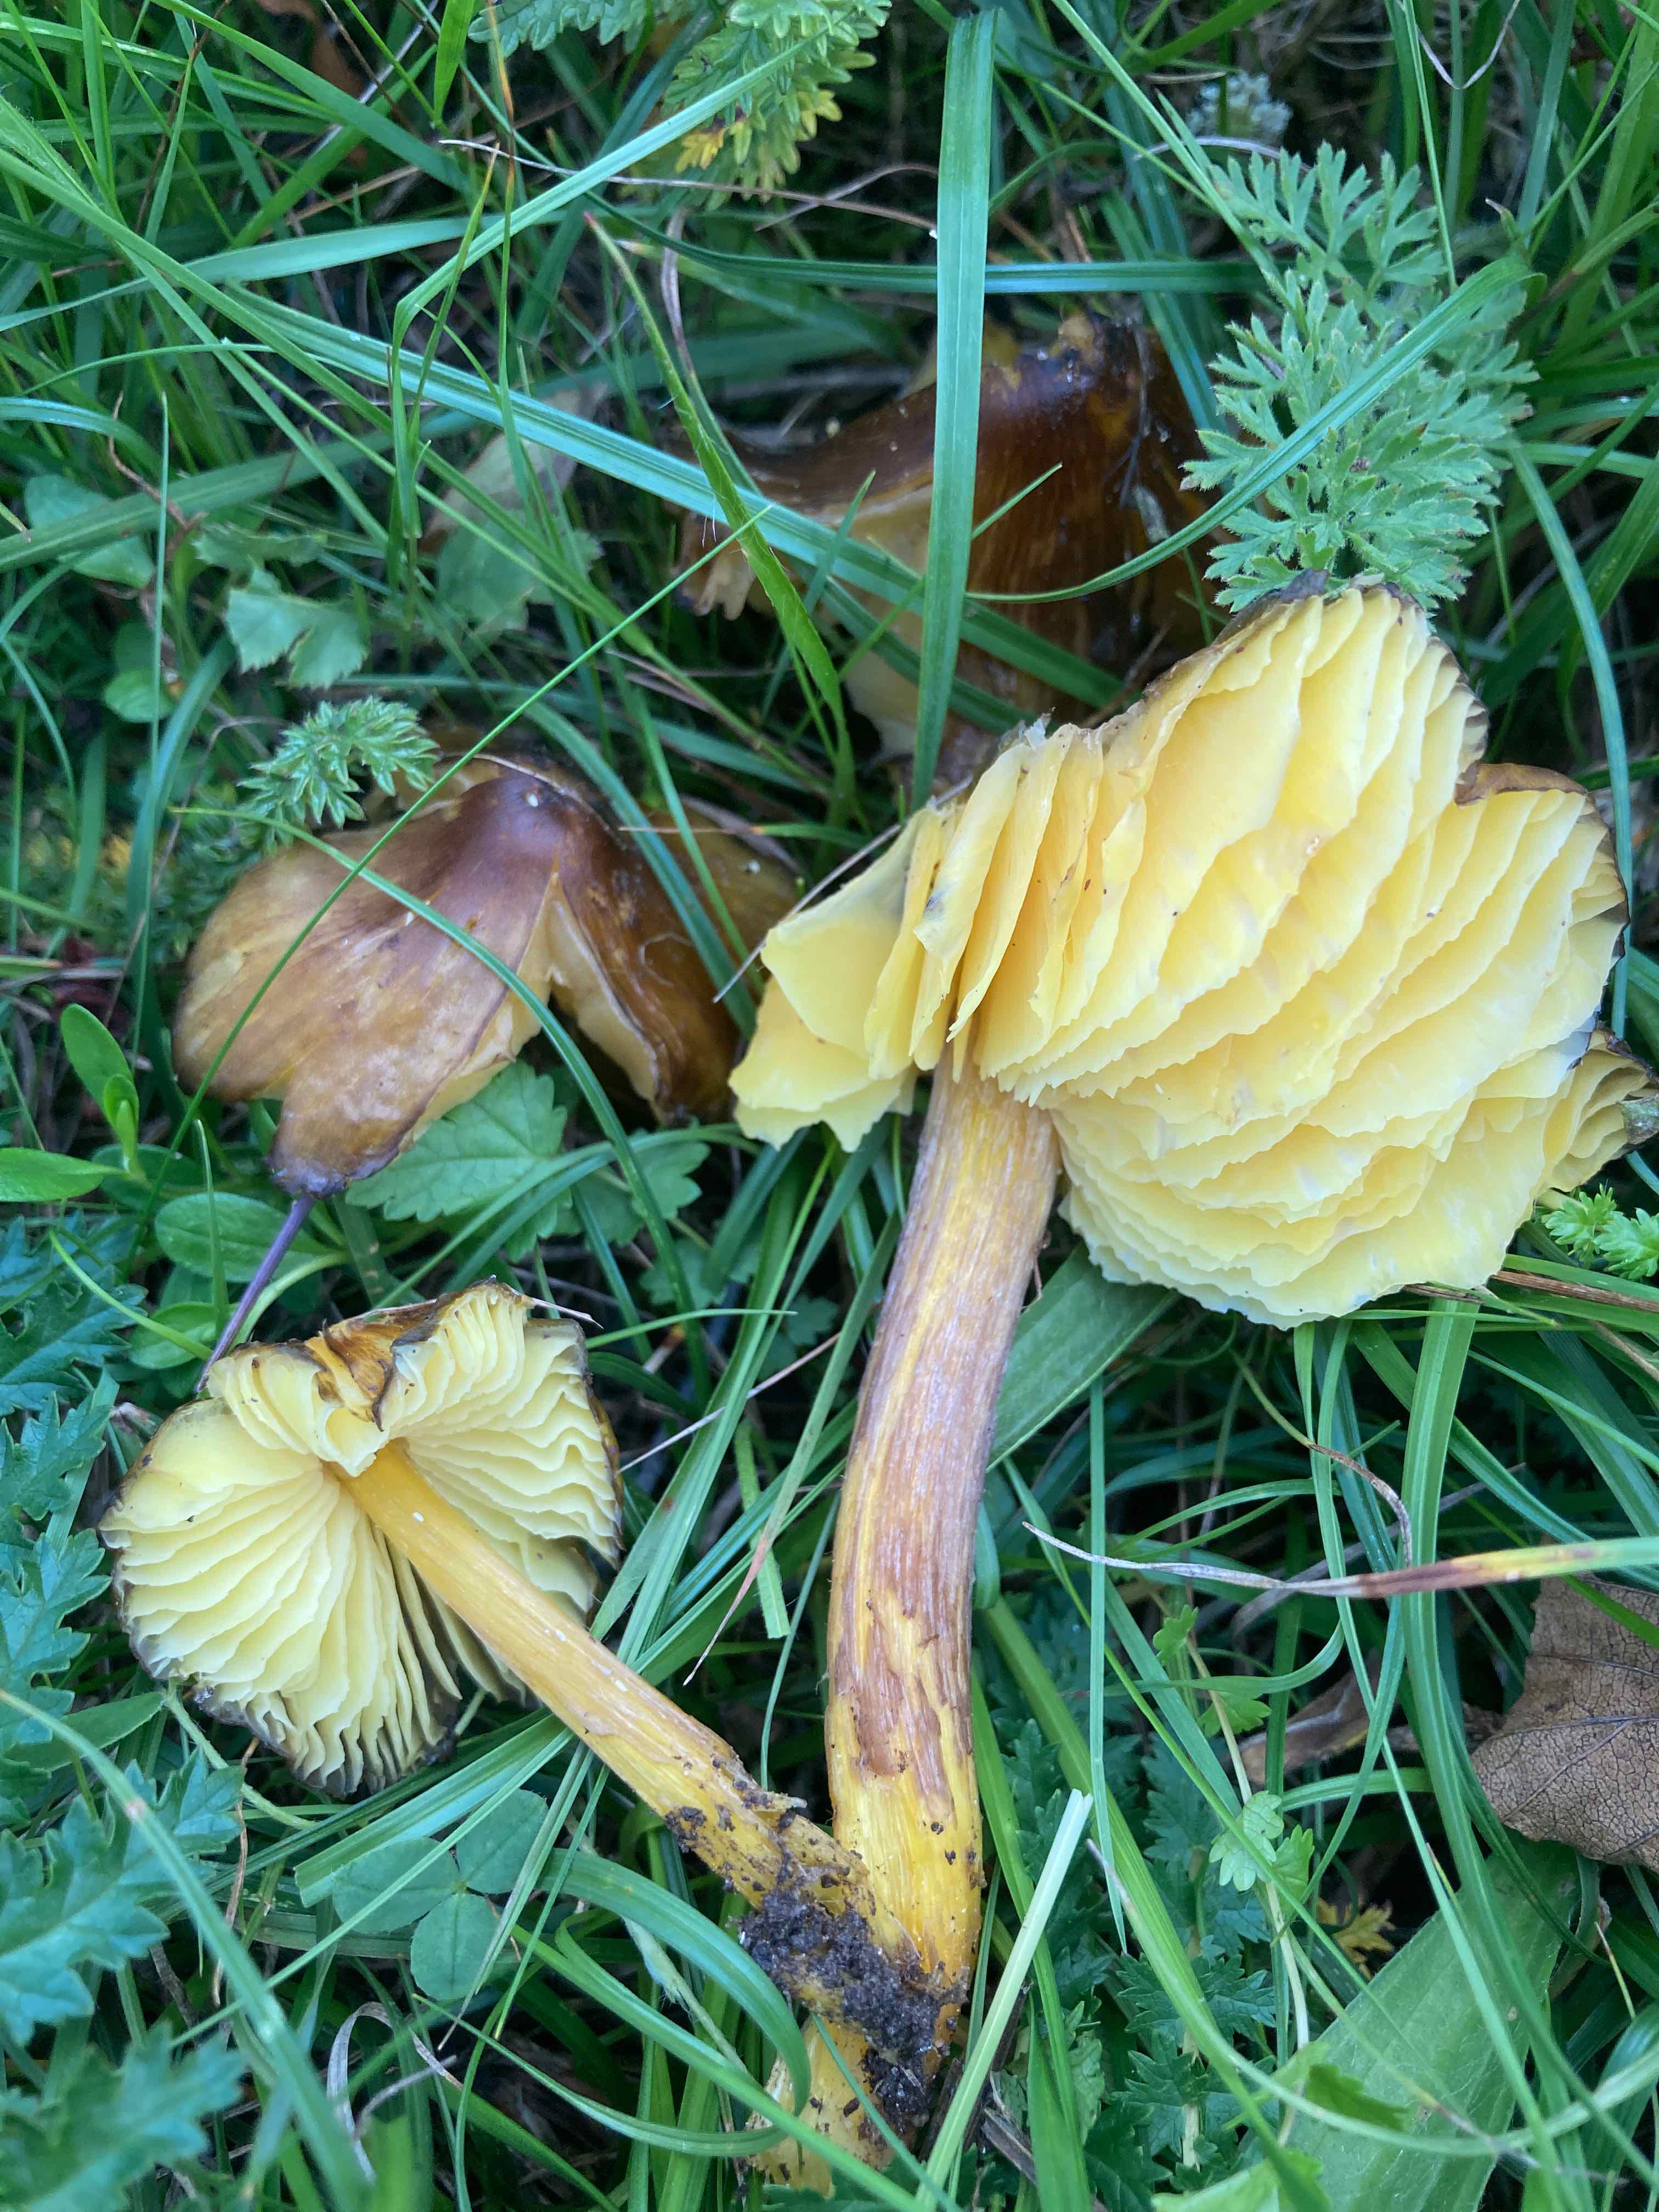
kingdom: Fungi
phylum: Basidiomycota
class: Agaricomycetes
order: Agaricales
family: Hygrophoraceae
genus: Hygrocybe
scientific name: Hygrocybe spadicea
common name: daddelbrun vokshat
